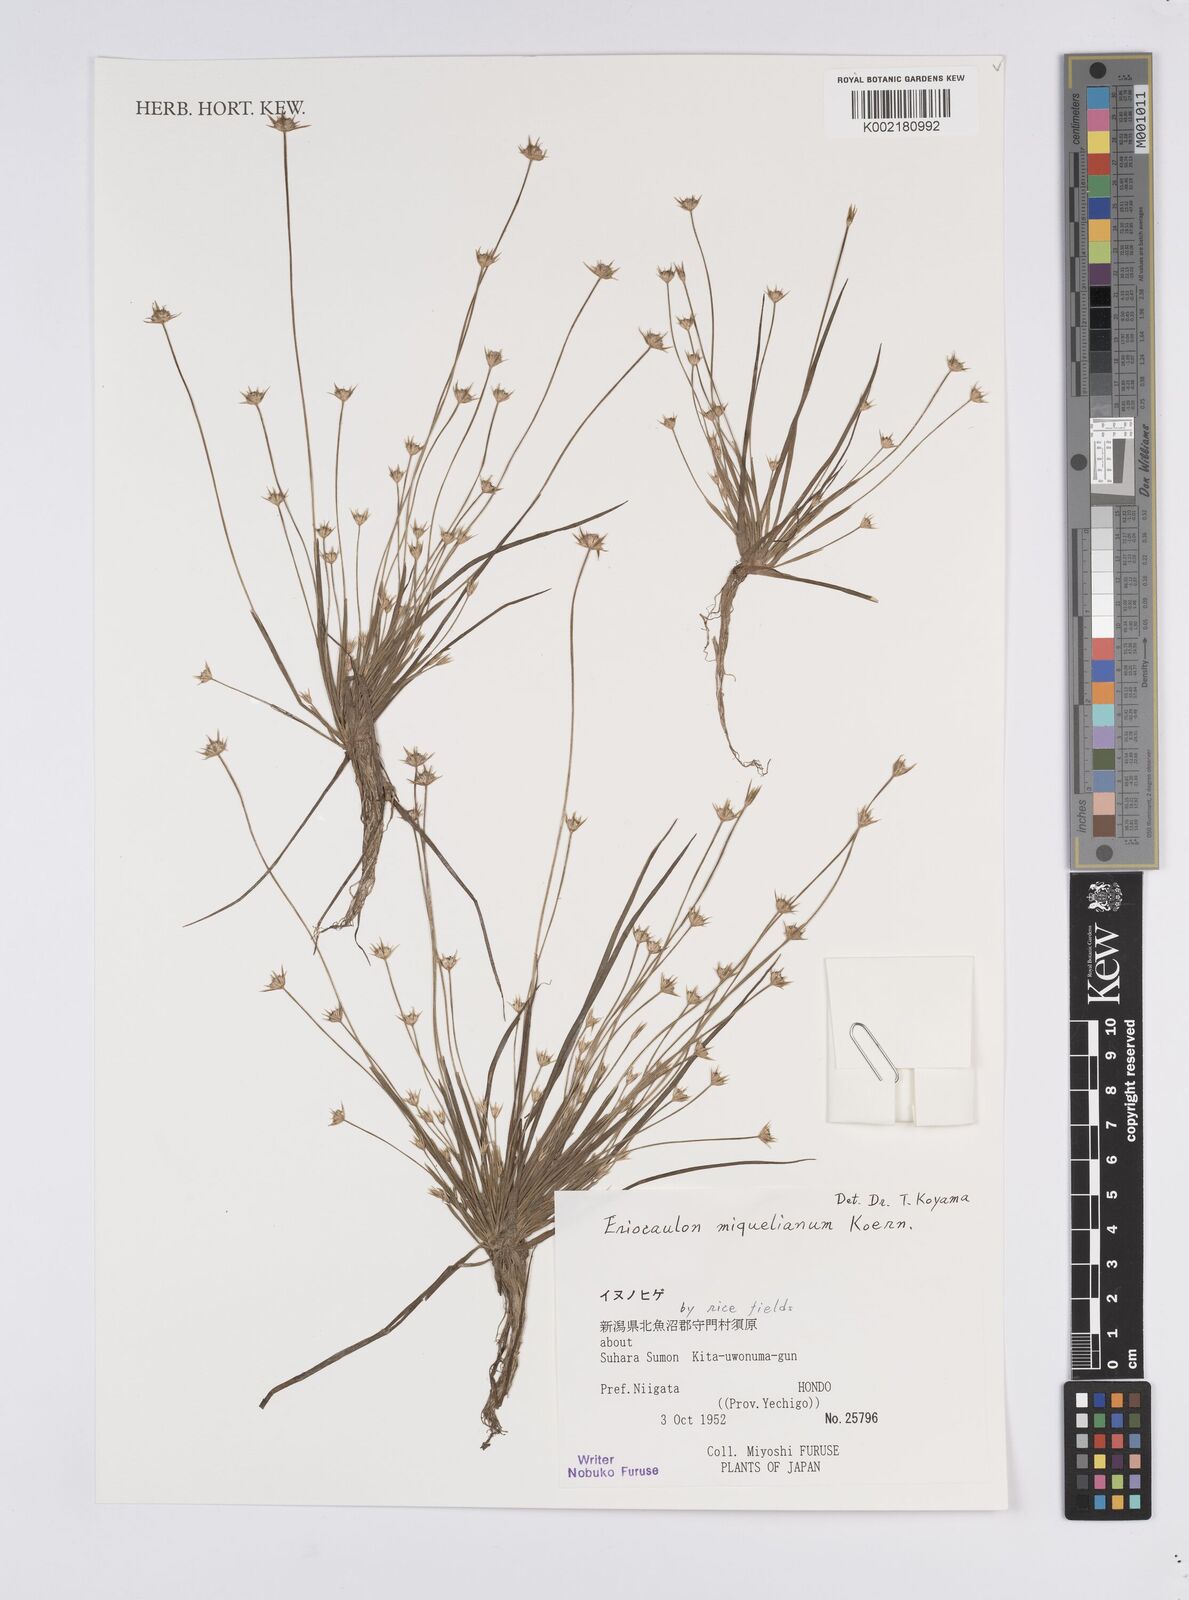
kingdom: Plantae
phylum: Tracheophyta
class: Liliopsida
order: Poales
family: Eriocaulaceae
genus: Eriocaulon
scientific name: Eriocaulon miquelianum
